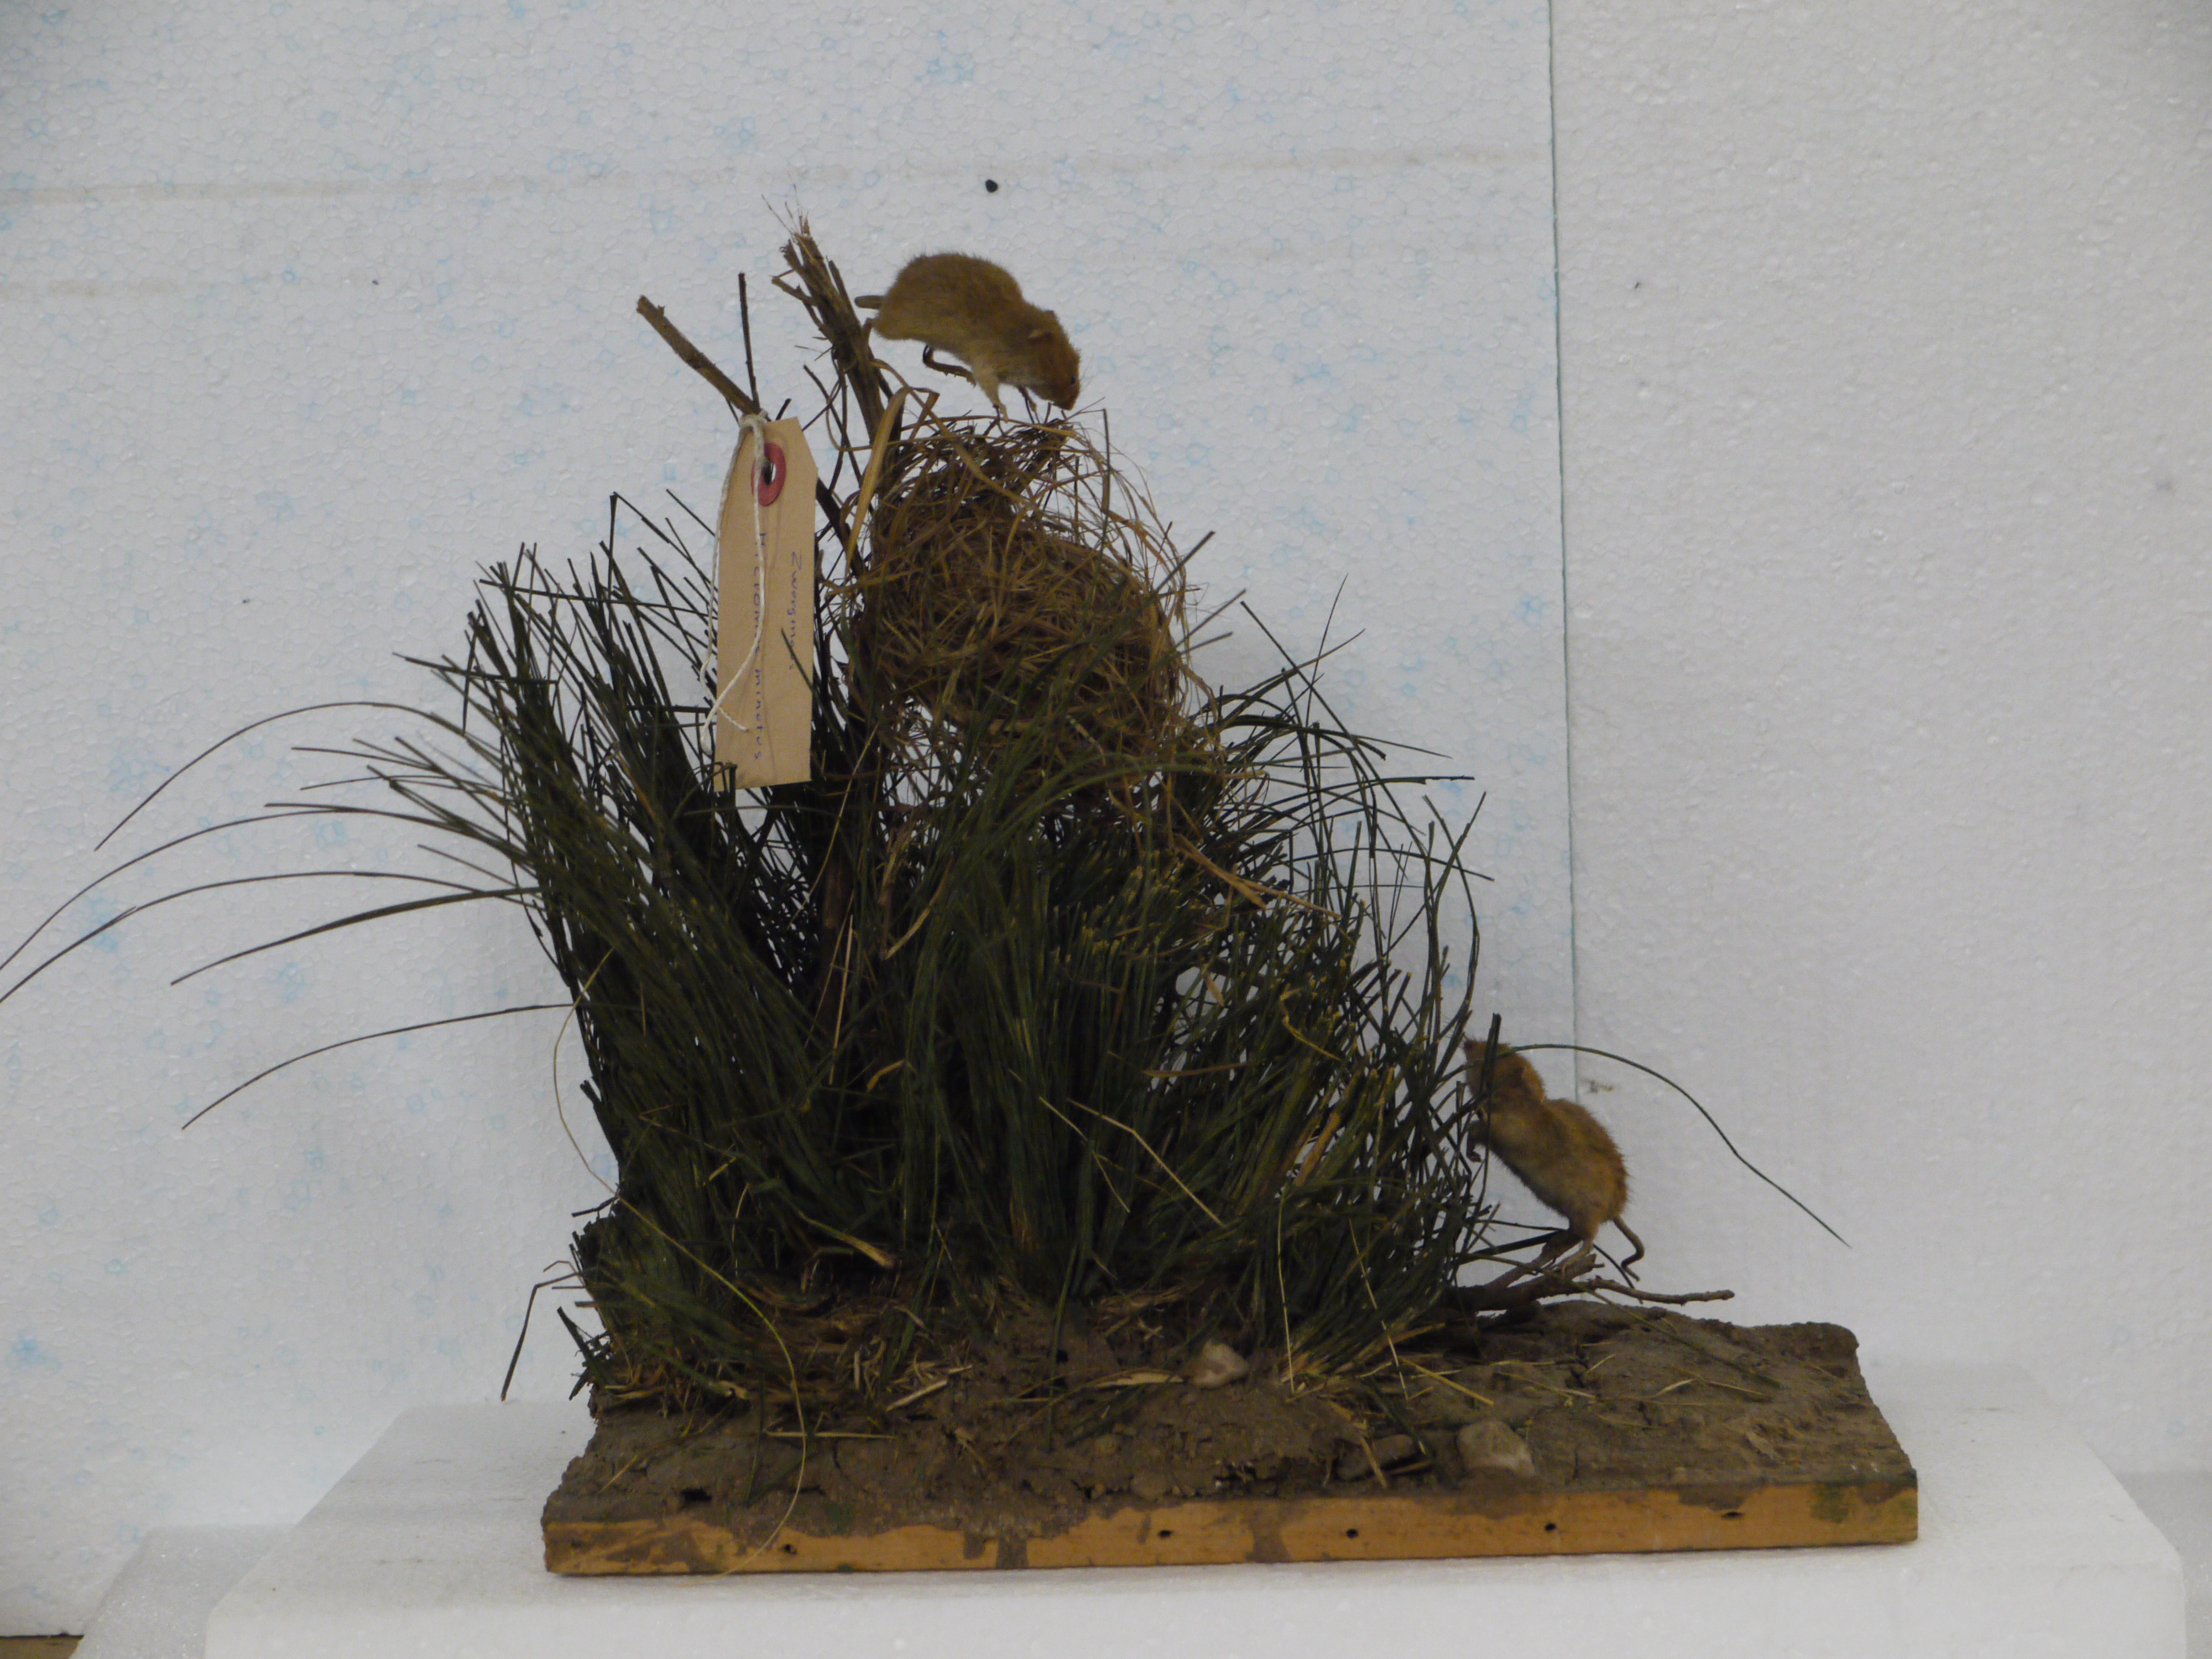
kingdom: Animalia
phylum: Chordata
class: Mammalia
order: Rodentia
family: Muridae
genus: Micromys
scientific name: Micromys minutus
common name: Harvest mouse
